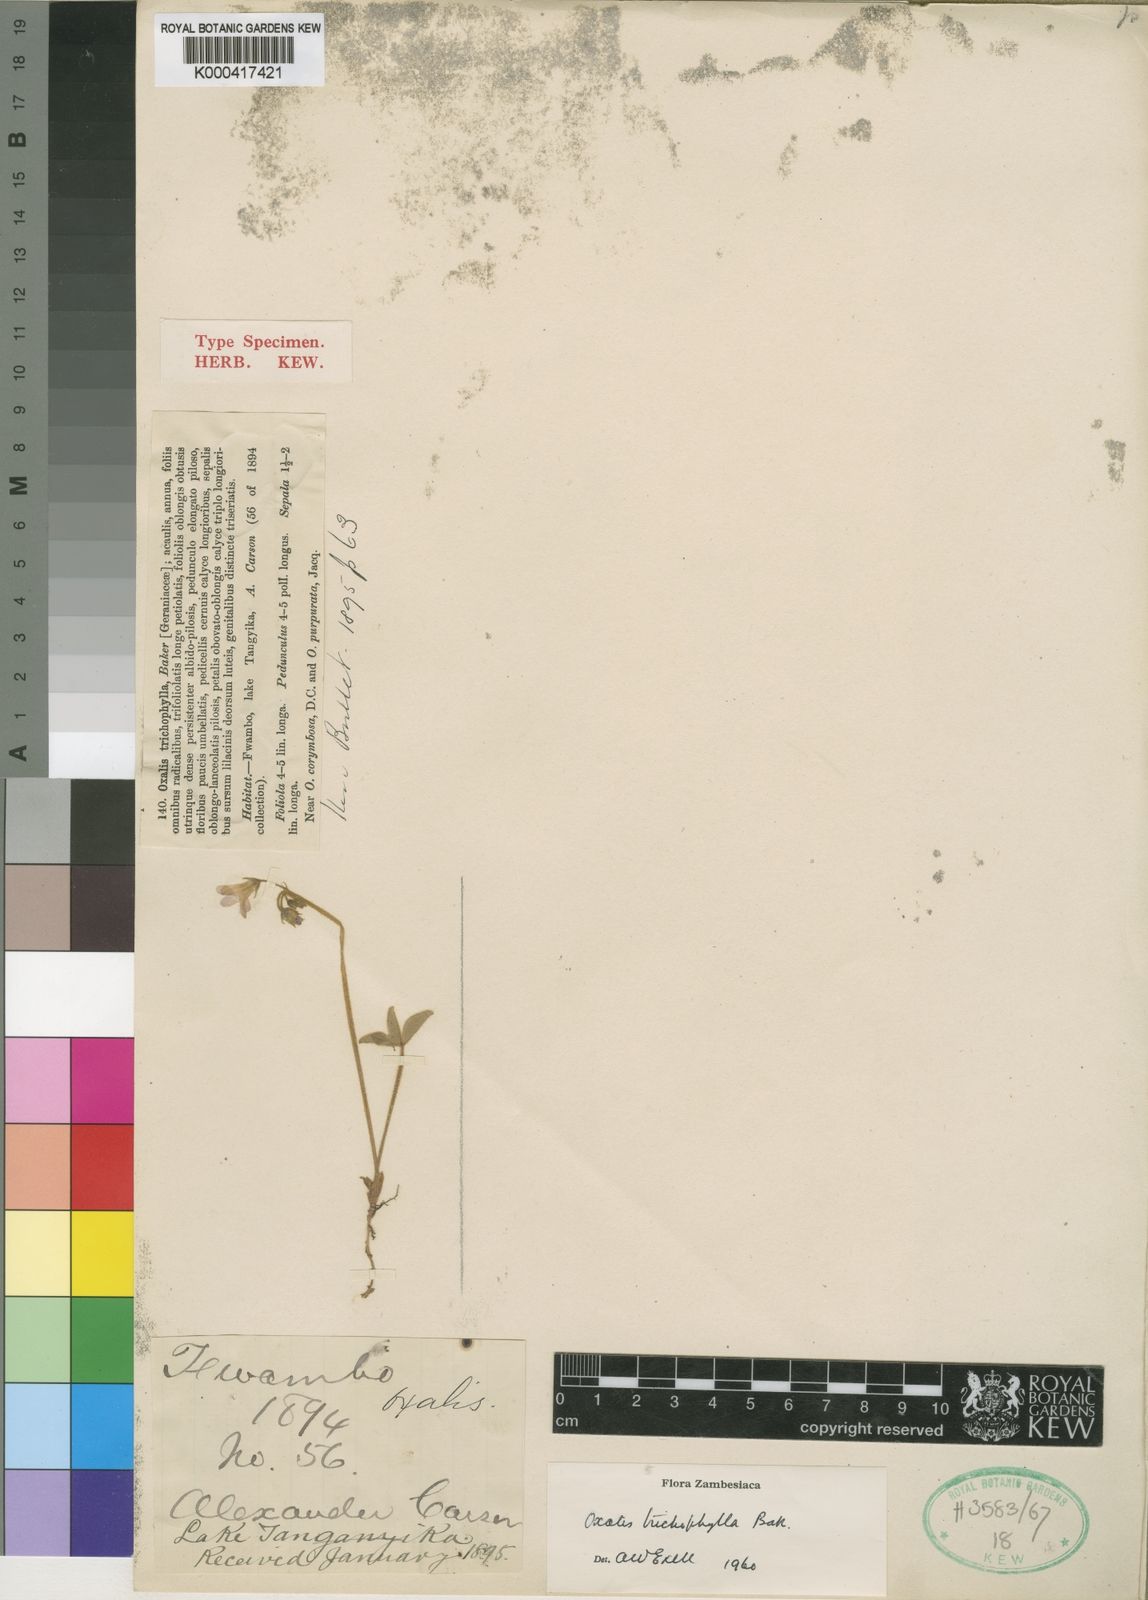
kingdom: Plantae
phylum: Tracheophyta
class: Magnoliopsida
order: Oxalidales
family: Oxalidaceae
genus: Oxalis
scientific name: Oxalis trichophylla
